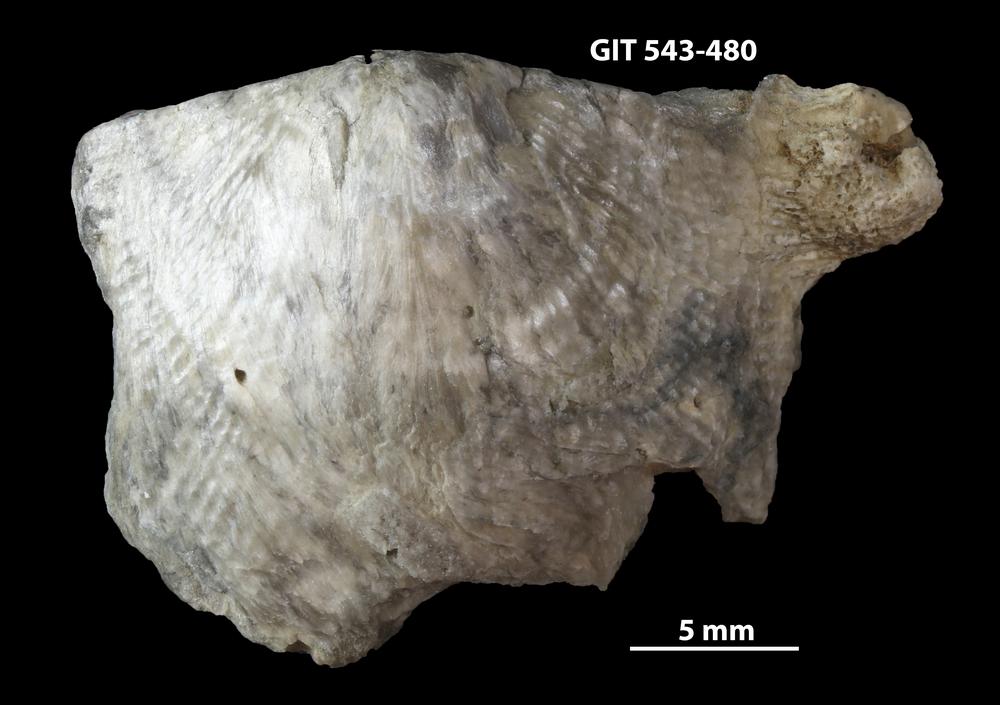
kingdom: Animalia
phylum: Brachiopoda
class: Rhynchonellata
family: Clitambonitidae
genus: Clitambonites
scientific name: Clitambonites squamatus
